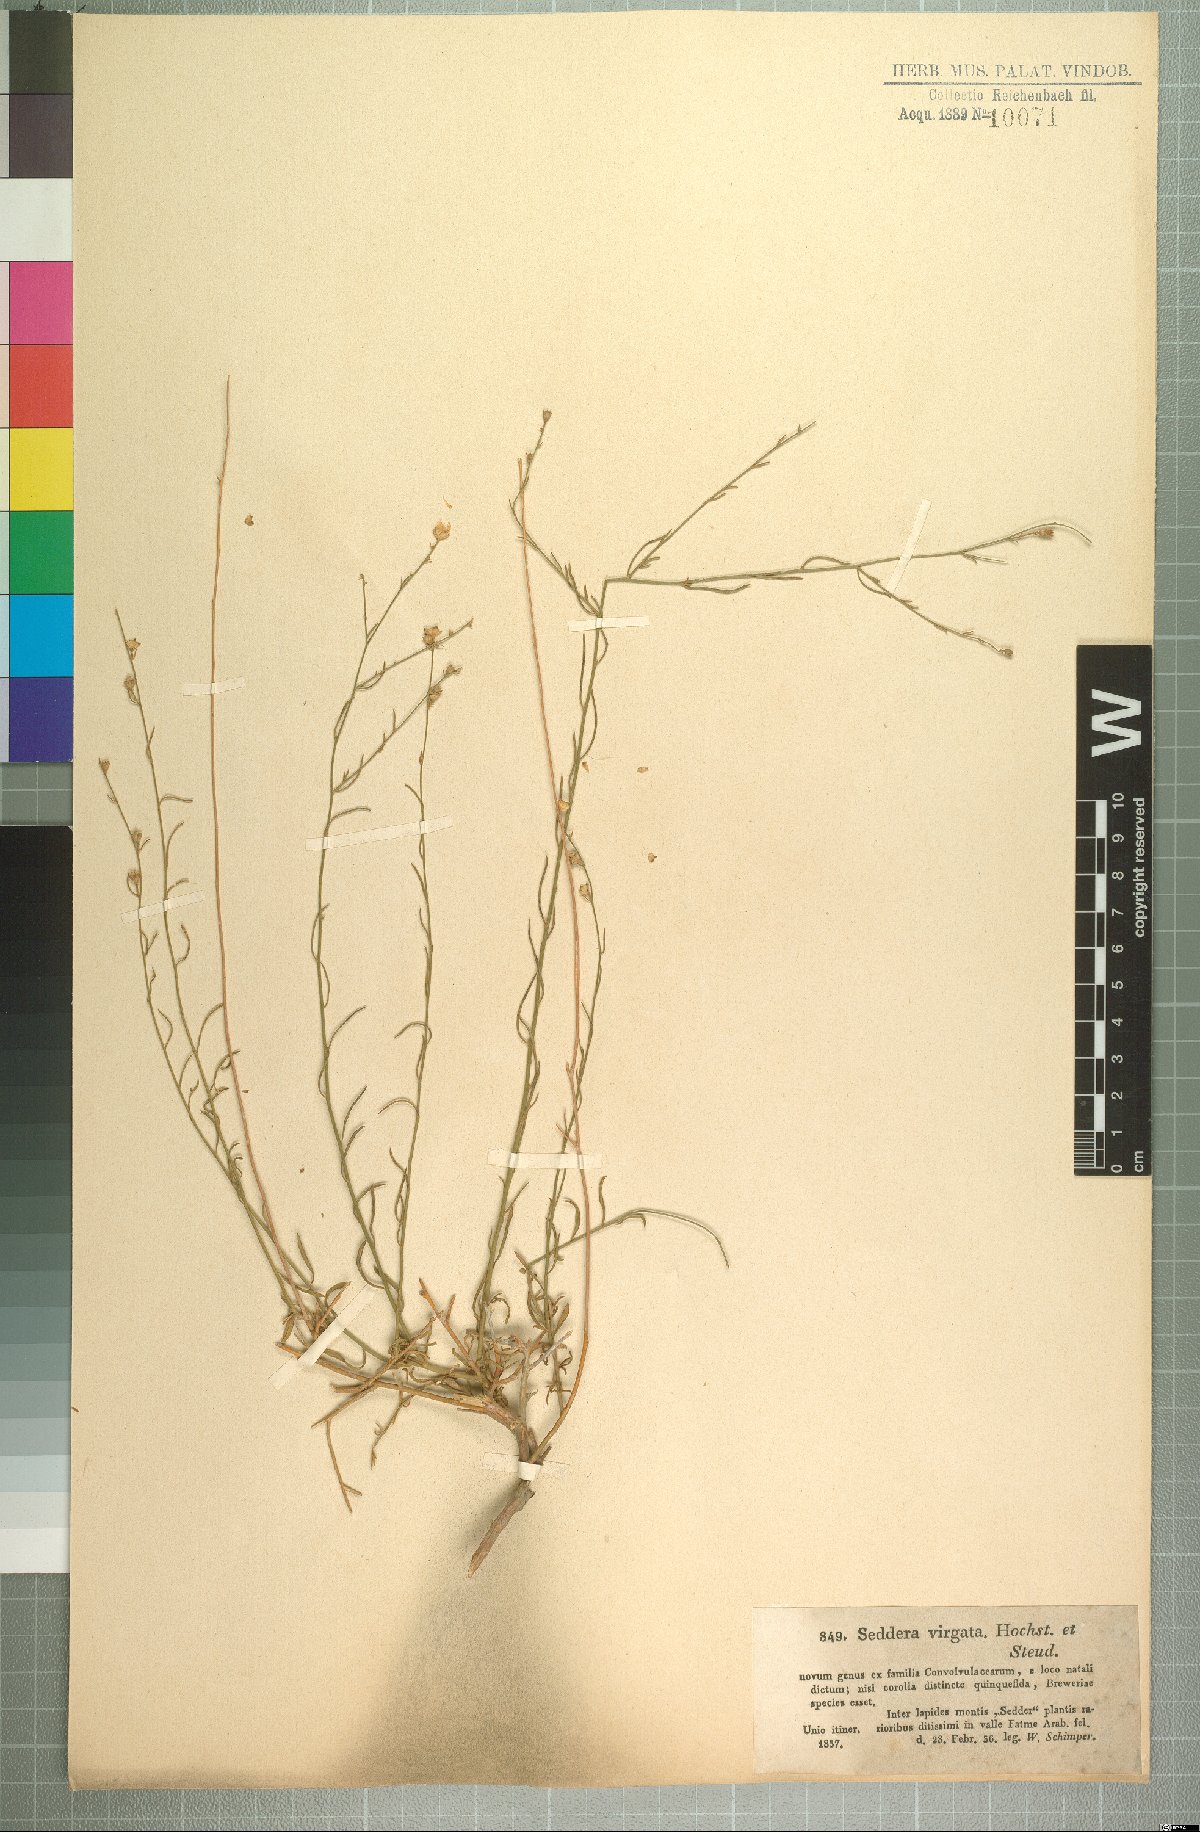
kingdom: Plantae
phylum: Tracheophyta
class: Magnoliopsida
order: Solanales
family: Convolvulaceae
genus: Seddera
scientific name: Seddera virgata
